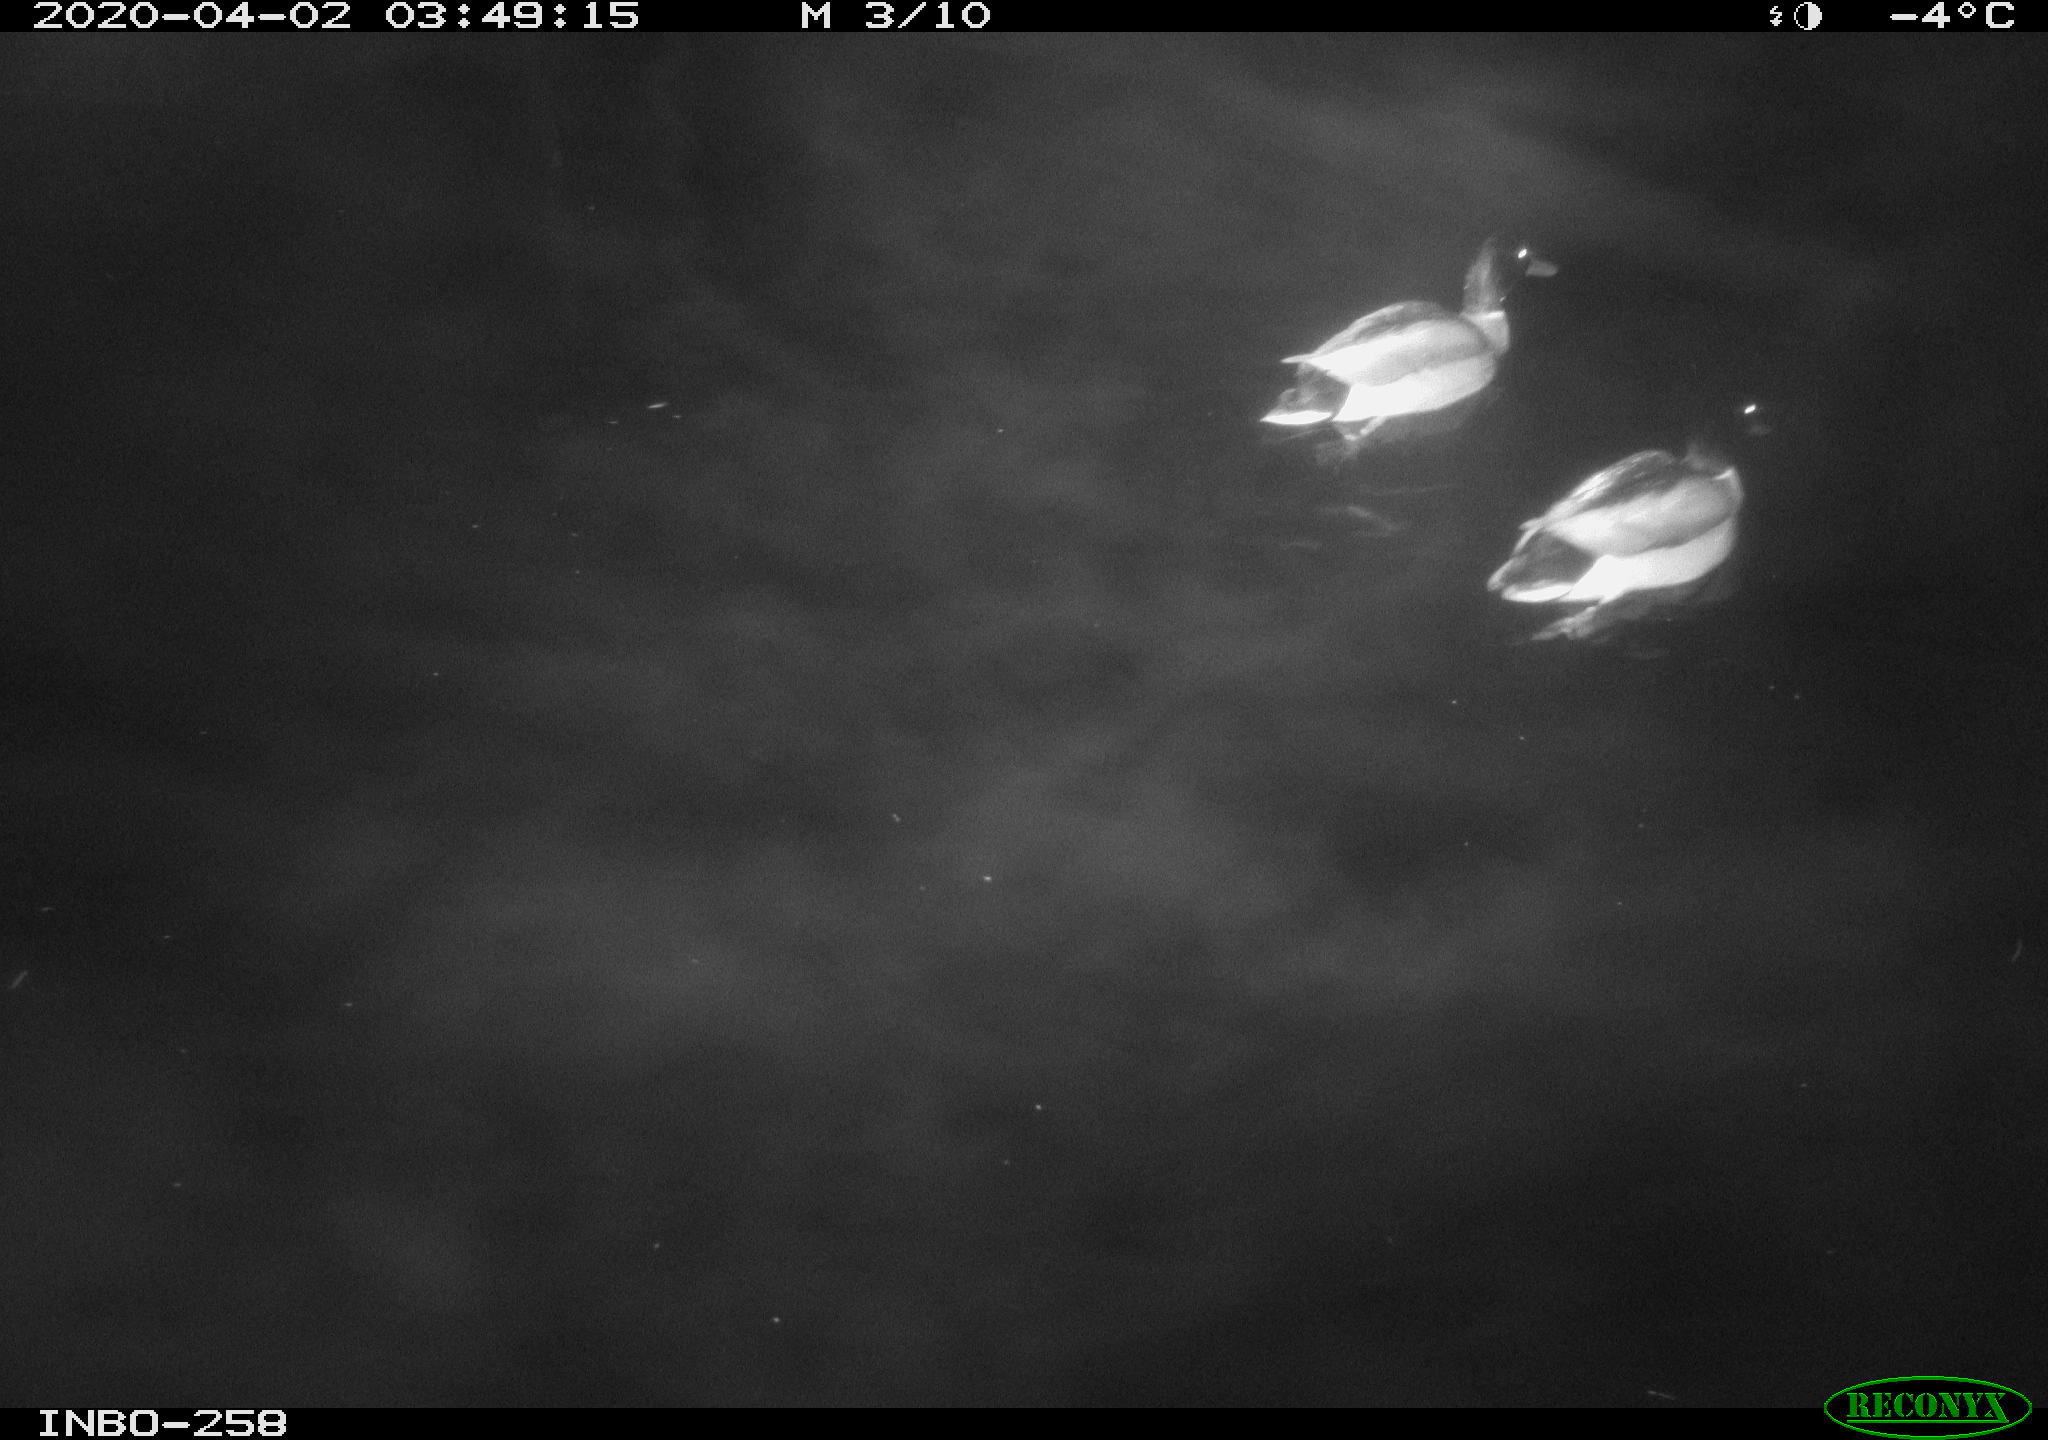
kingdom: Animalia
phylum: Chordata
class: Aves
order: Anseriformes
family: Anatidae
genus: Anas
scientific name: Anas platyrhynchos
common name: Mallard
